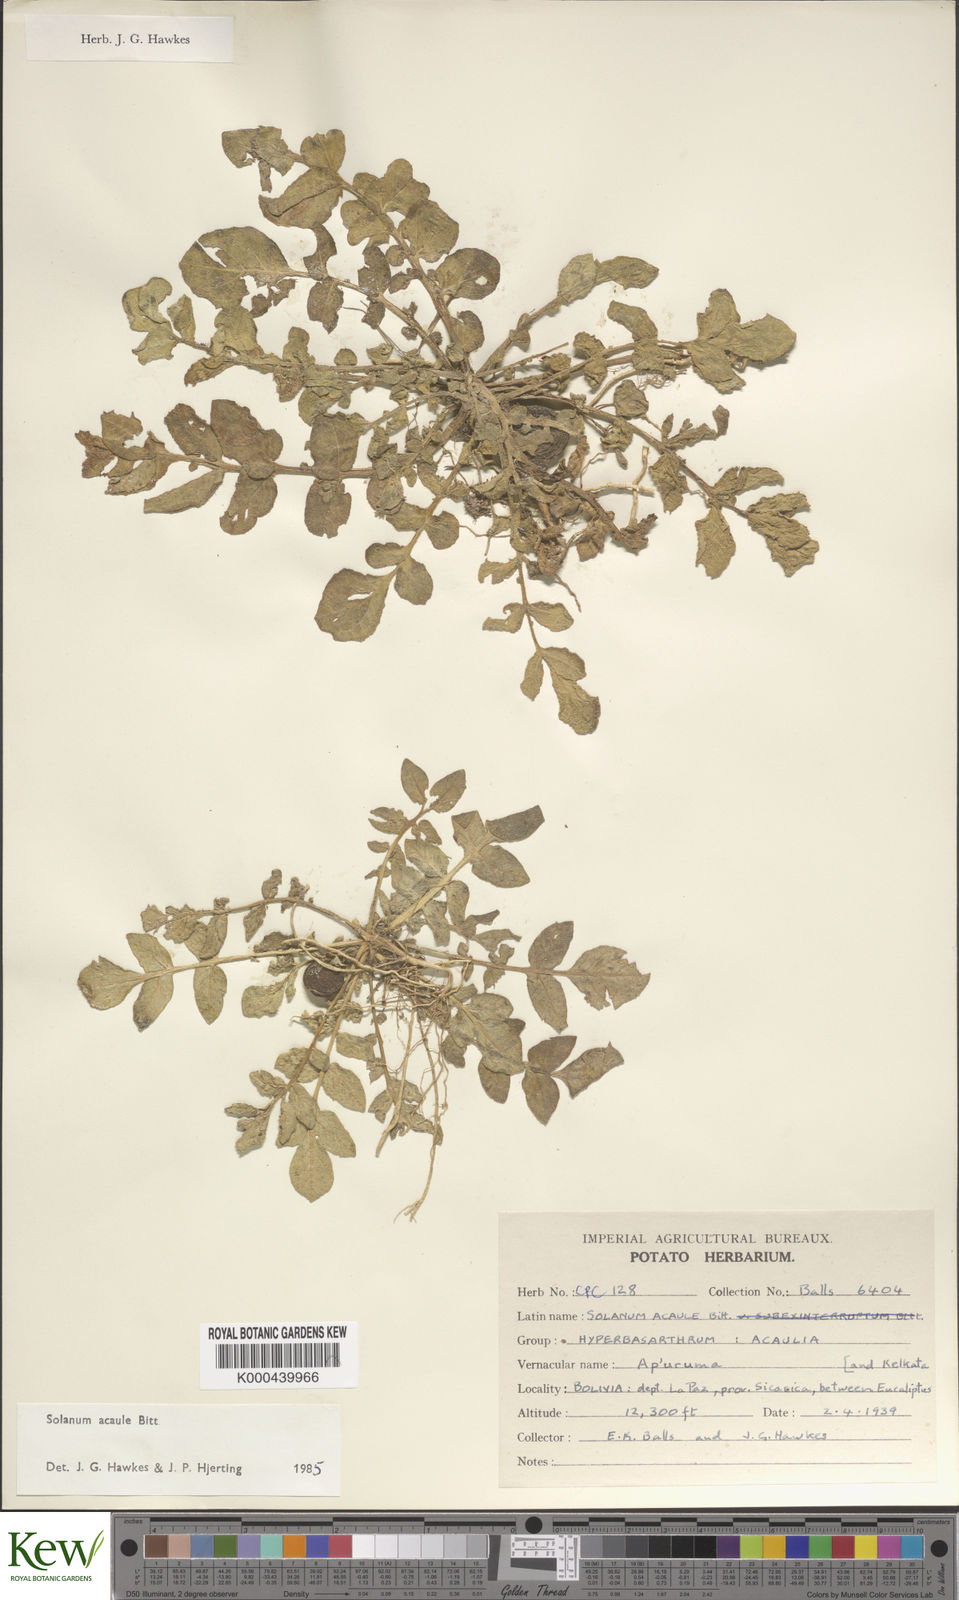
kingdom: Plantae
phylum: Tracheophyta
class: Magnoliopsida
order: Solanales
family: Solanaceae
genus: Solanum
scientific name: Solanum acaule
